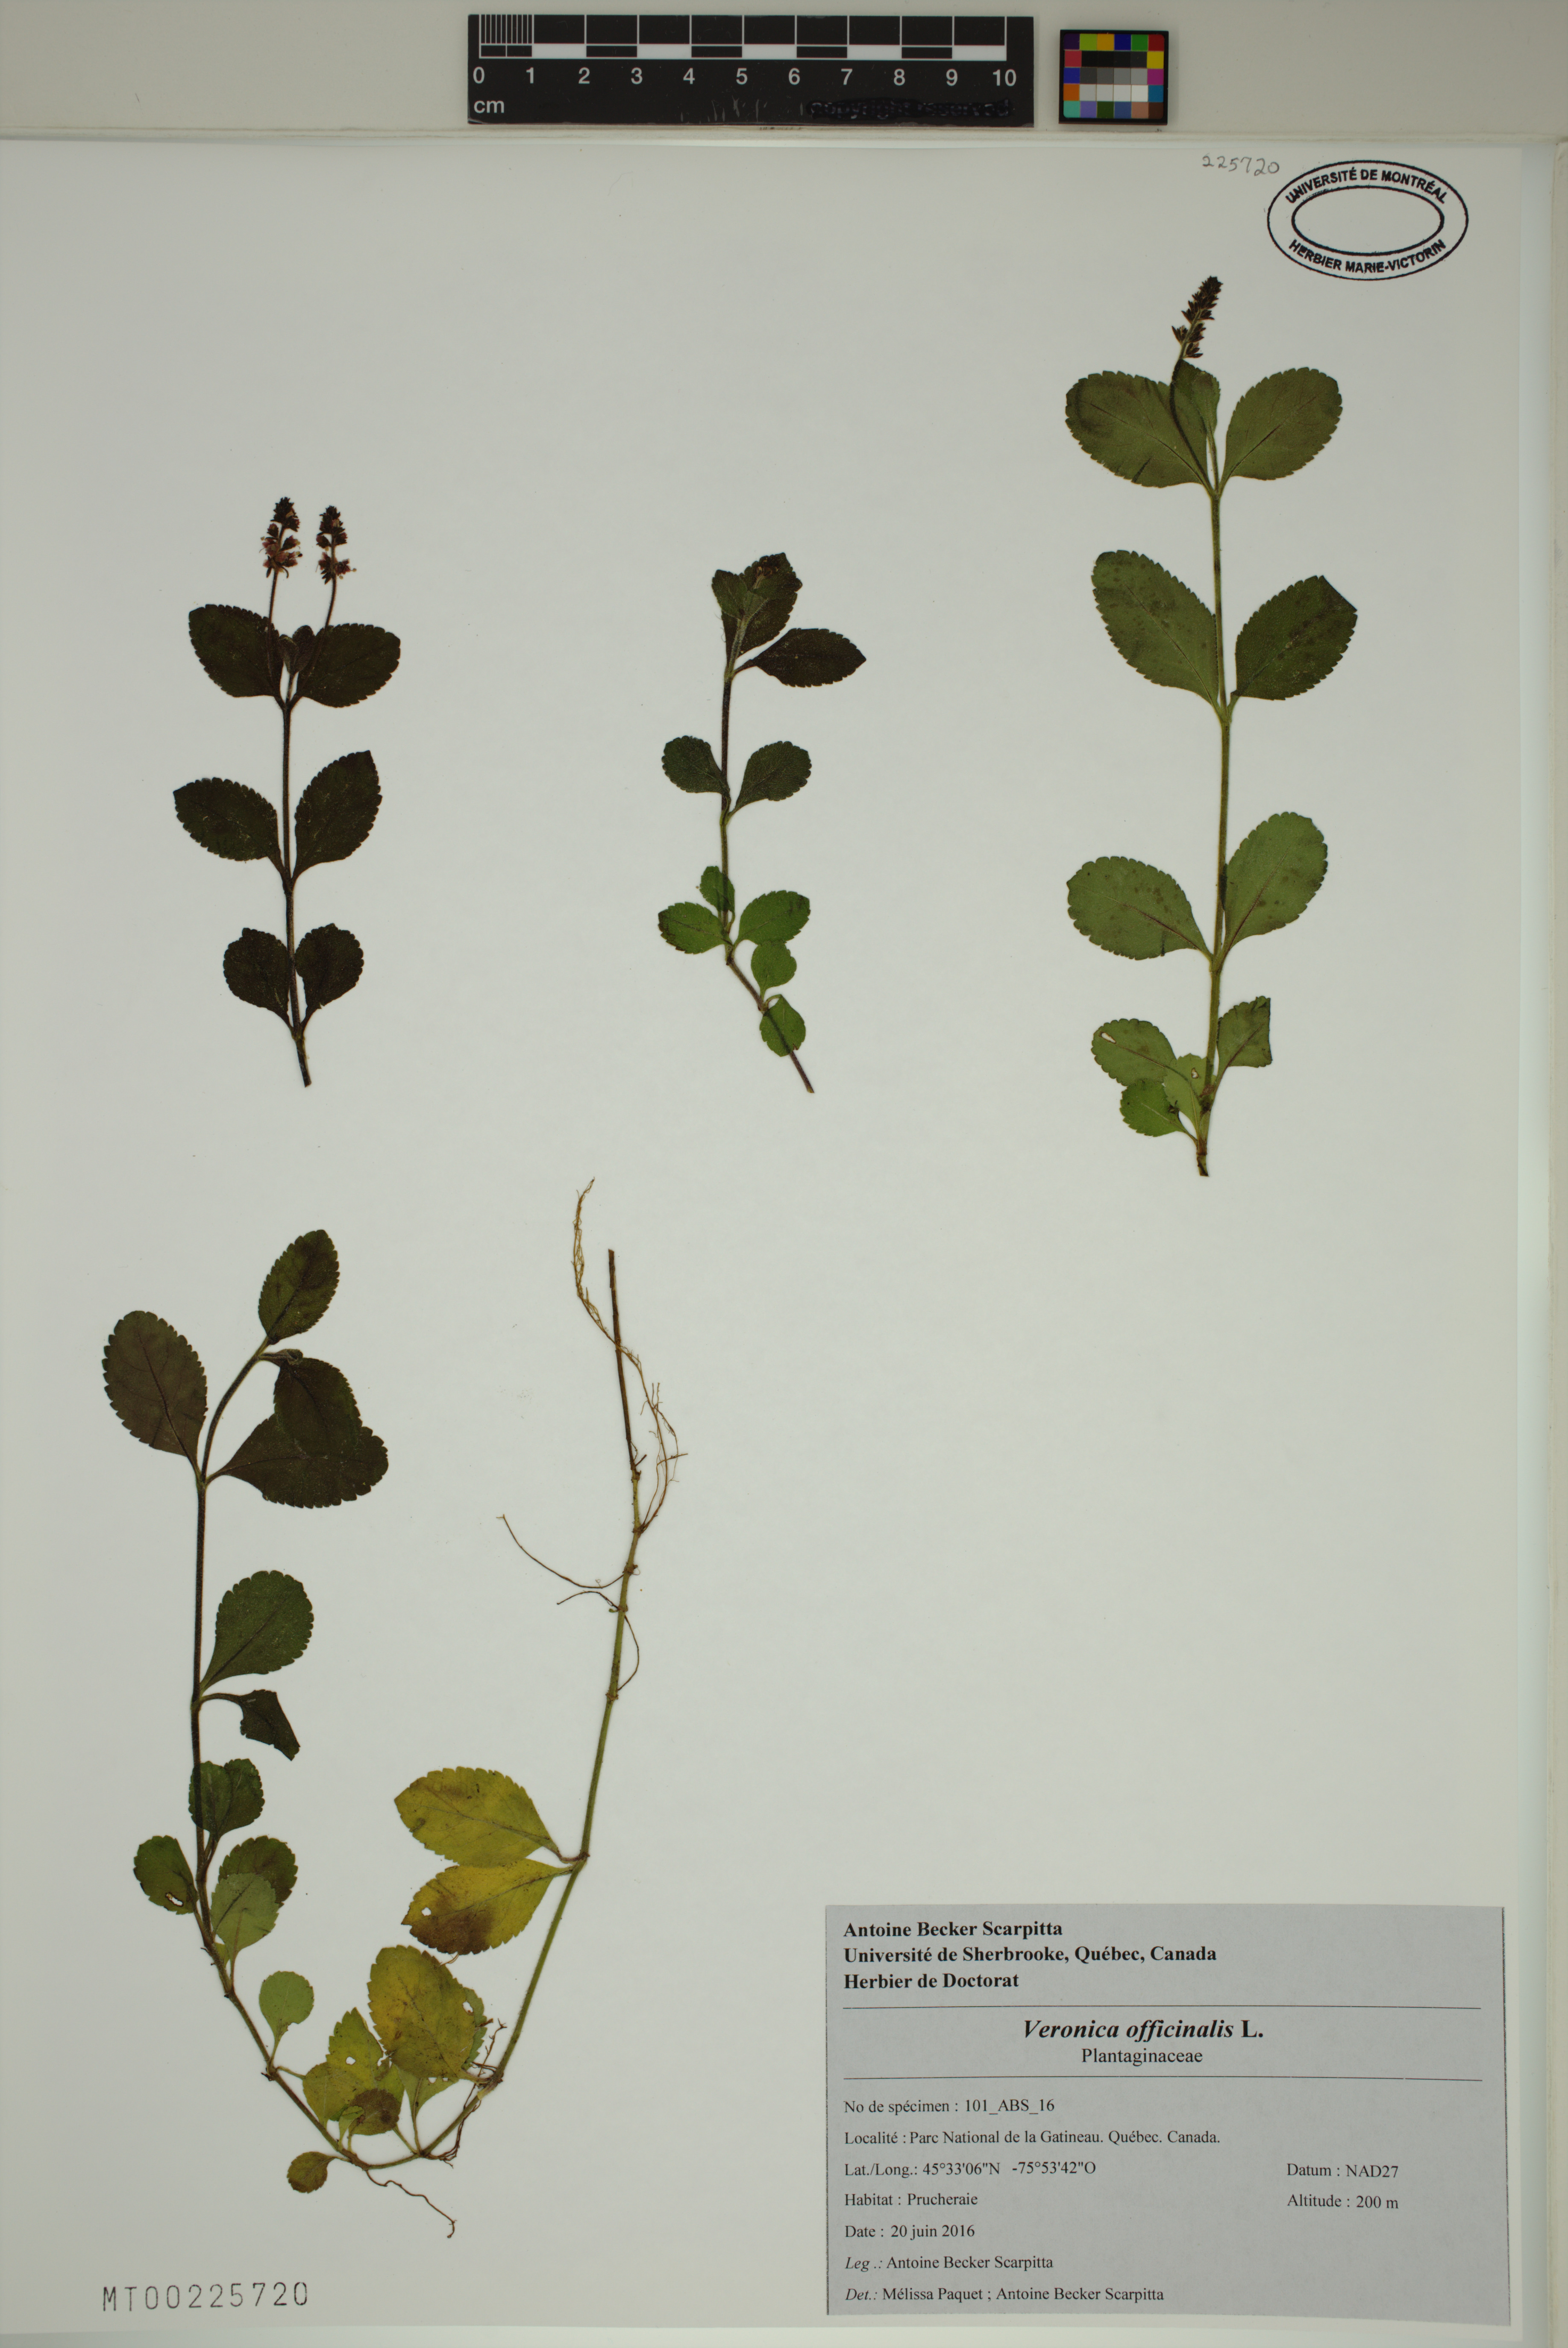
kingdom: Plantae
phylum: Tracheophyta
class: Magnoliopsida
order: Lamiales
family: Plantaginaceae
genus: Veronica
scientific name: Veronica officinalis
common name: Common speedwell
